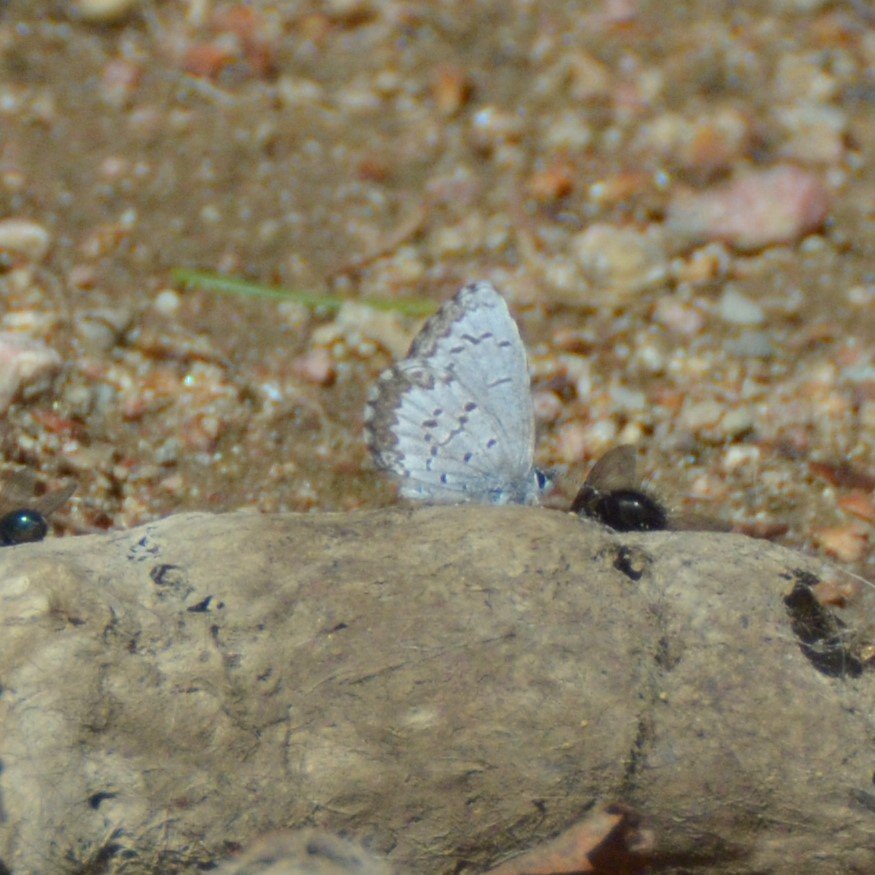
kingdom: Animalia
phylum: Arthropoda
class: Insecta
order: Lepidoptera
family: Lycaenidae
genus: Celastrina
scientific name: Celastrina lucia
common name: Northern Spring Azure
